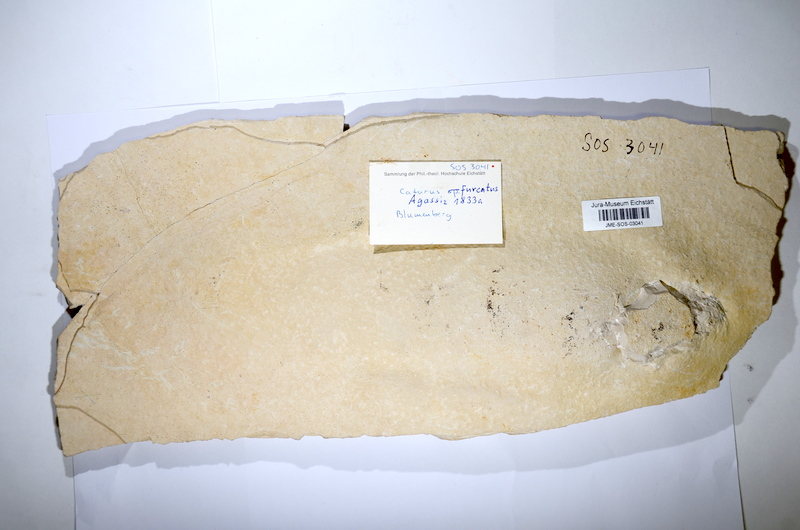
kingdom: Animalia
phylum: Chordata
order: Amiiformes
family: Caturidae
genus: Caturus
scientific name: Caturus furcatus
